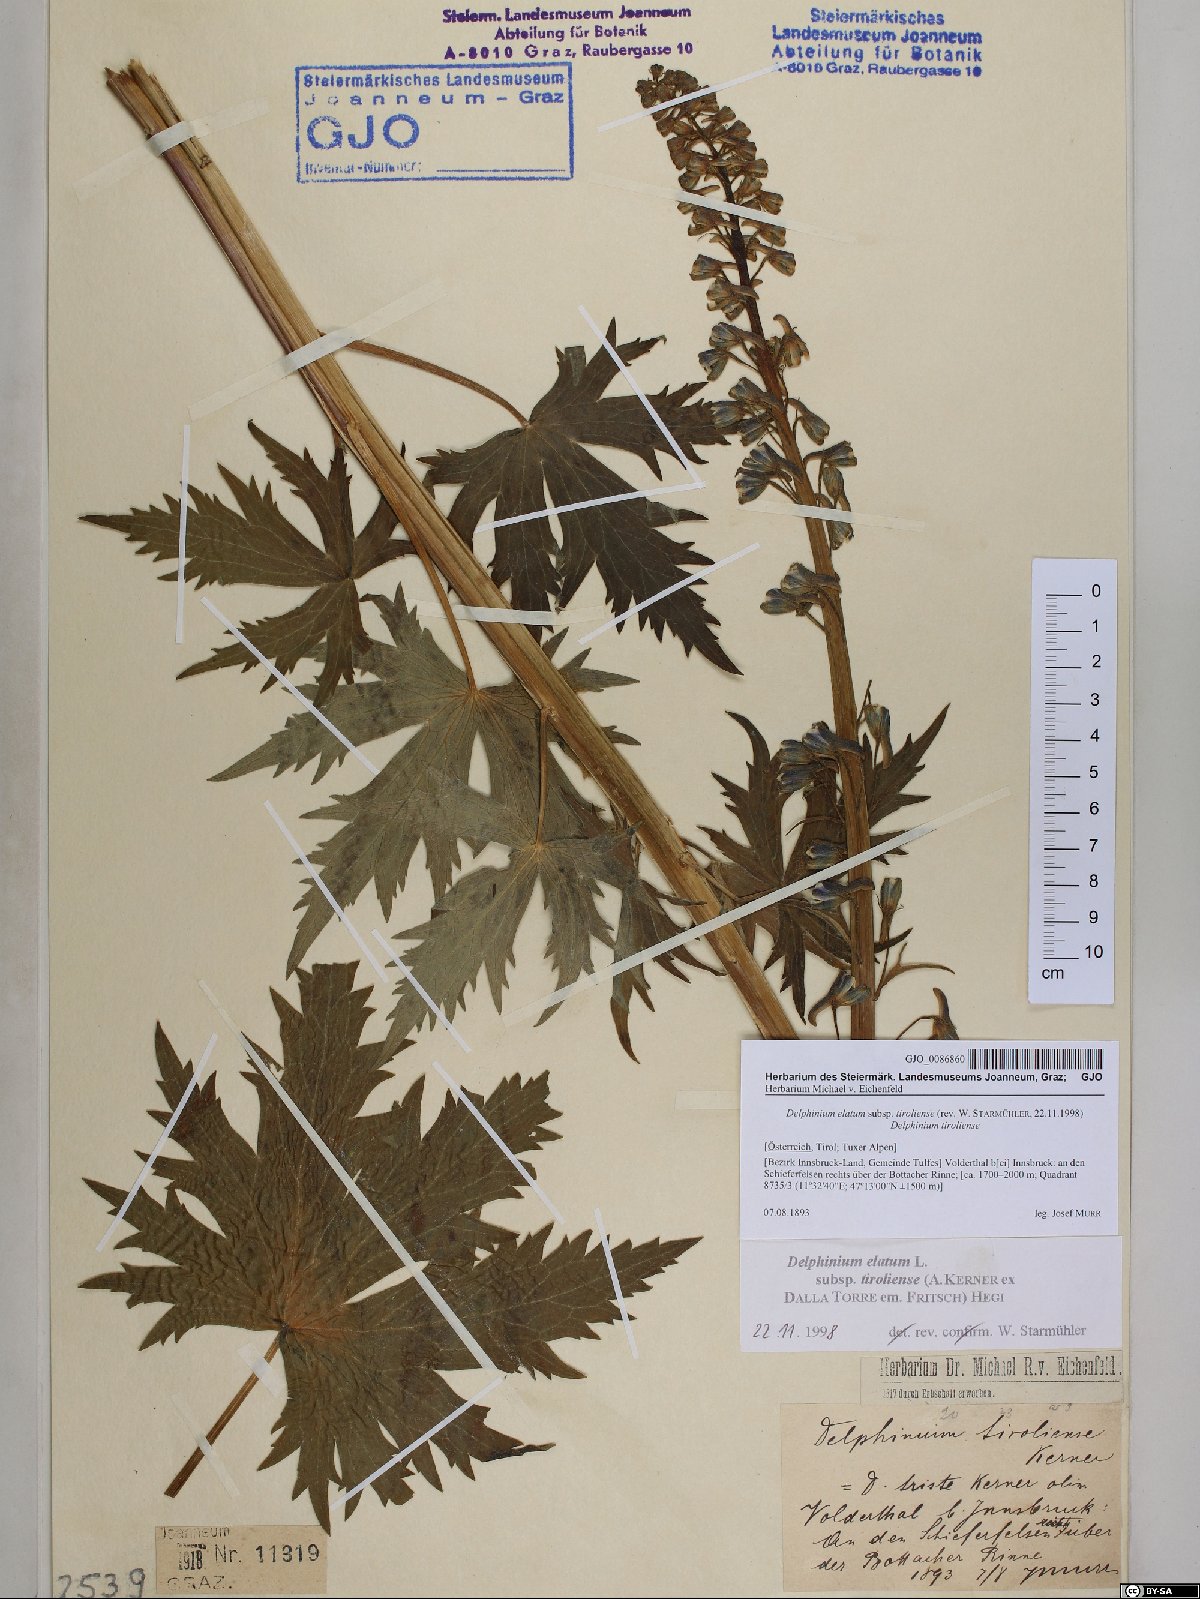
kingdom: Plantae
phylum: Tracheophyta
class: Magnoliopsida
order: Ranunculales
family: Ranunculaceae
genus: Delphinium
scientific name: Delphinium elatum
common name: Candle larkspur
